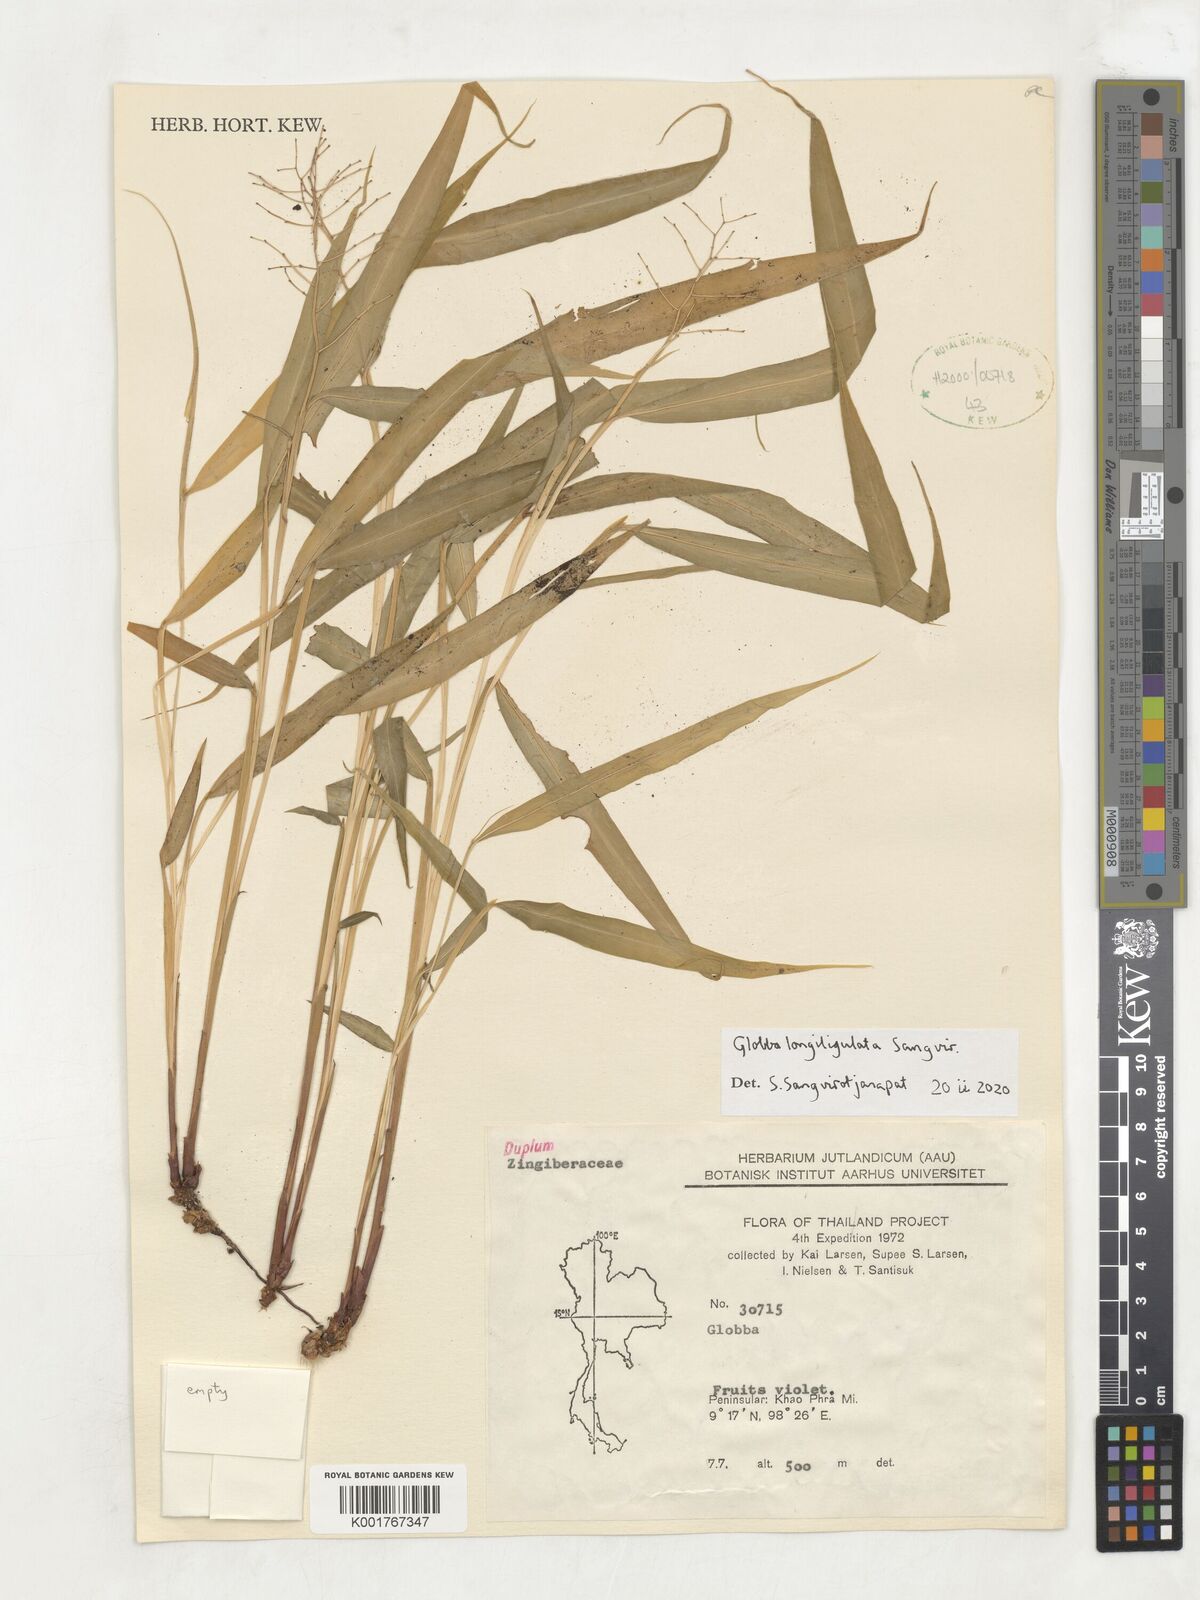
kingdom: Plantae
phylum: Tracheophyta
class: Liliopsida
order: Zingiberales
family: Zingiberaceae
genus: Globba
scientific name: Globba
